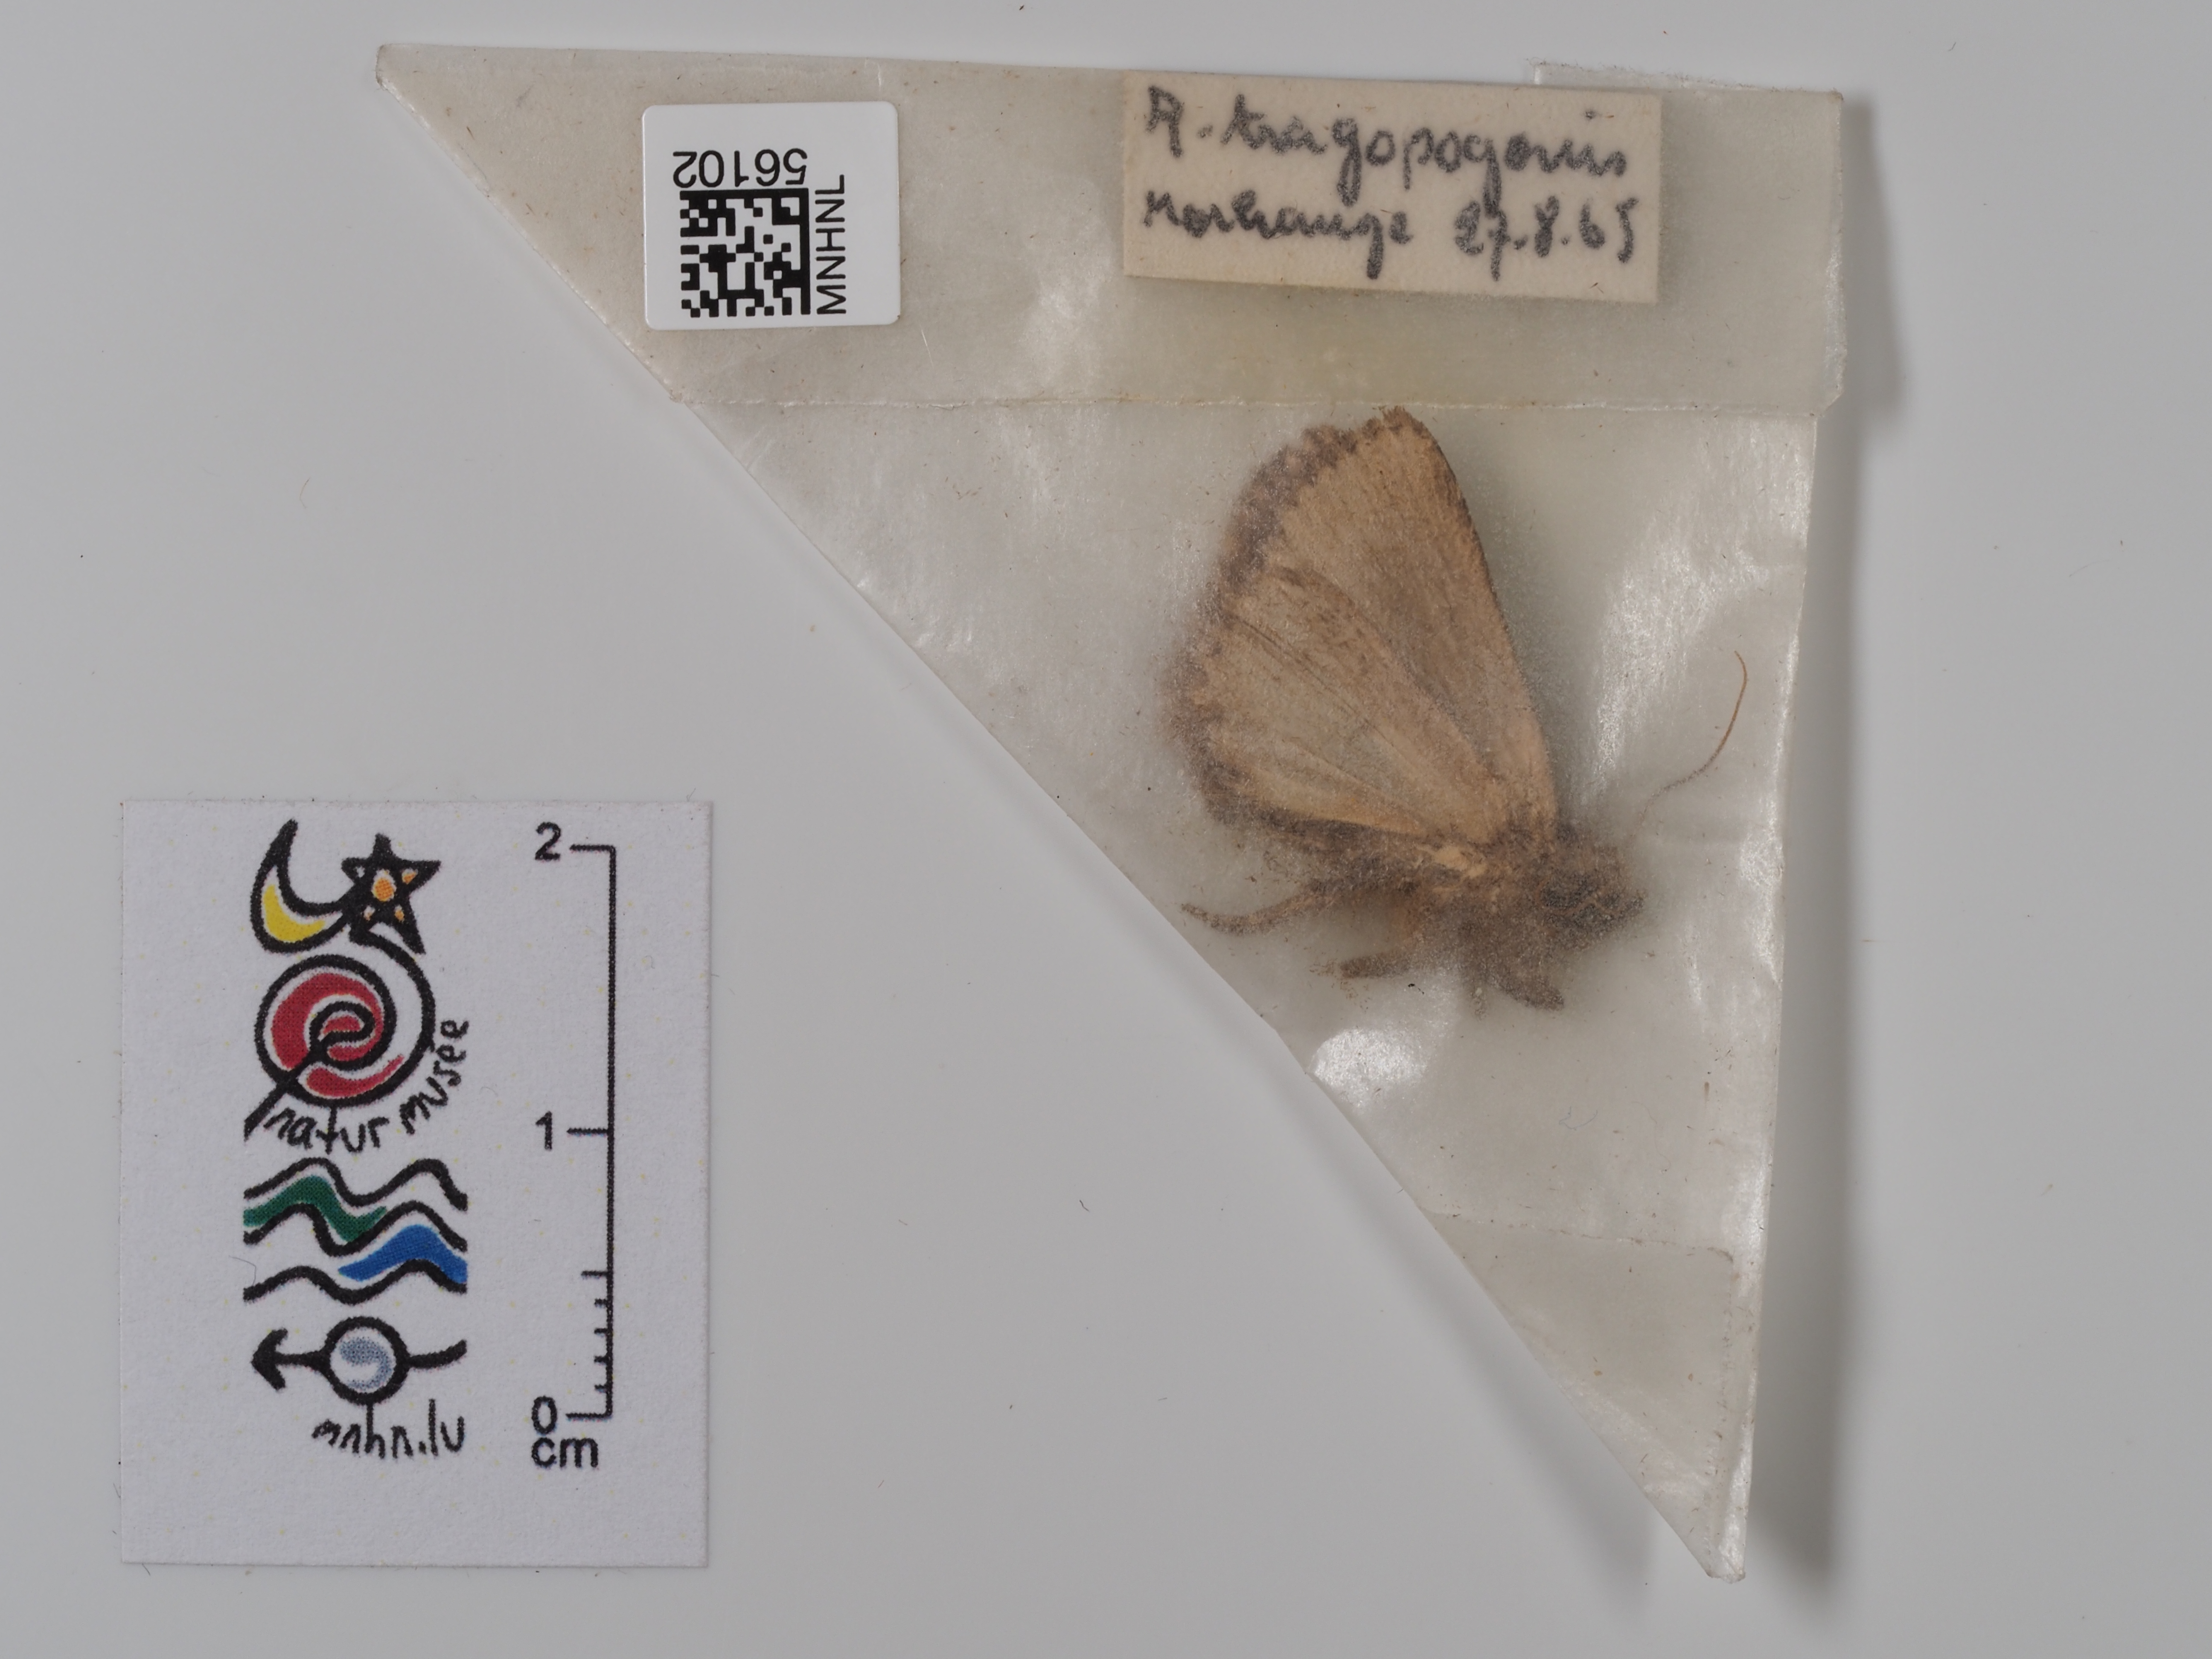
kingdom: Animalia
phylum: Arthropoda
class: Insecta
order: Lepidoptera
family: Noctuidae
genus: Amphipyra
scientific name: Amphipyra tragopoginis
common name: Mouse moth
